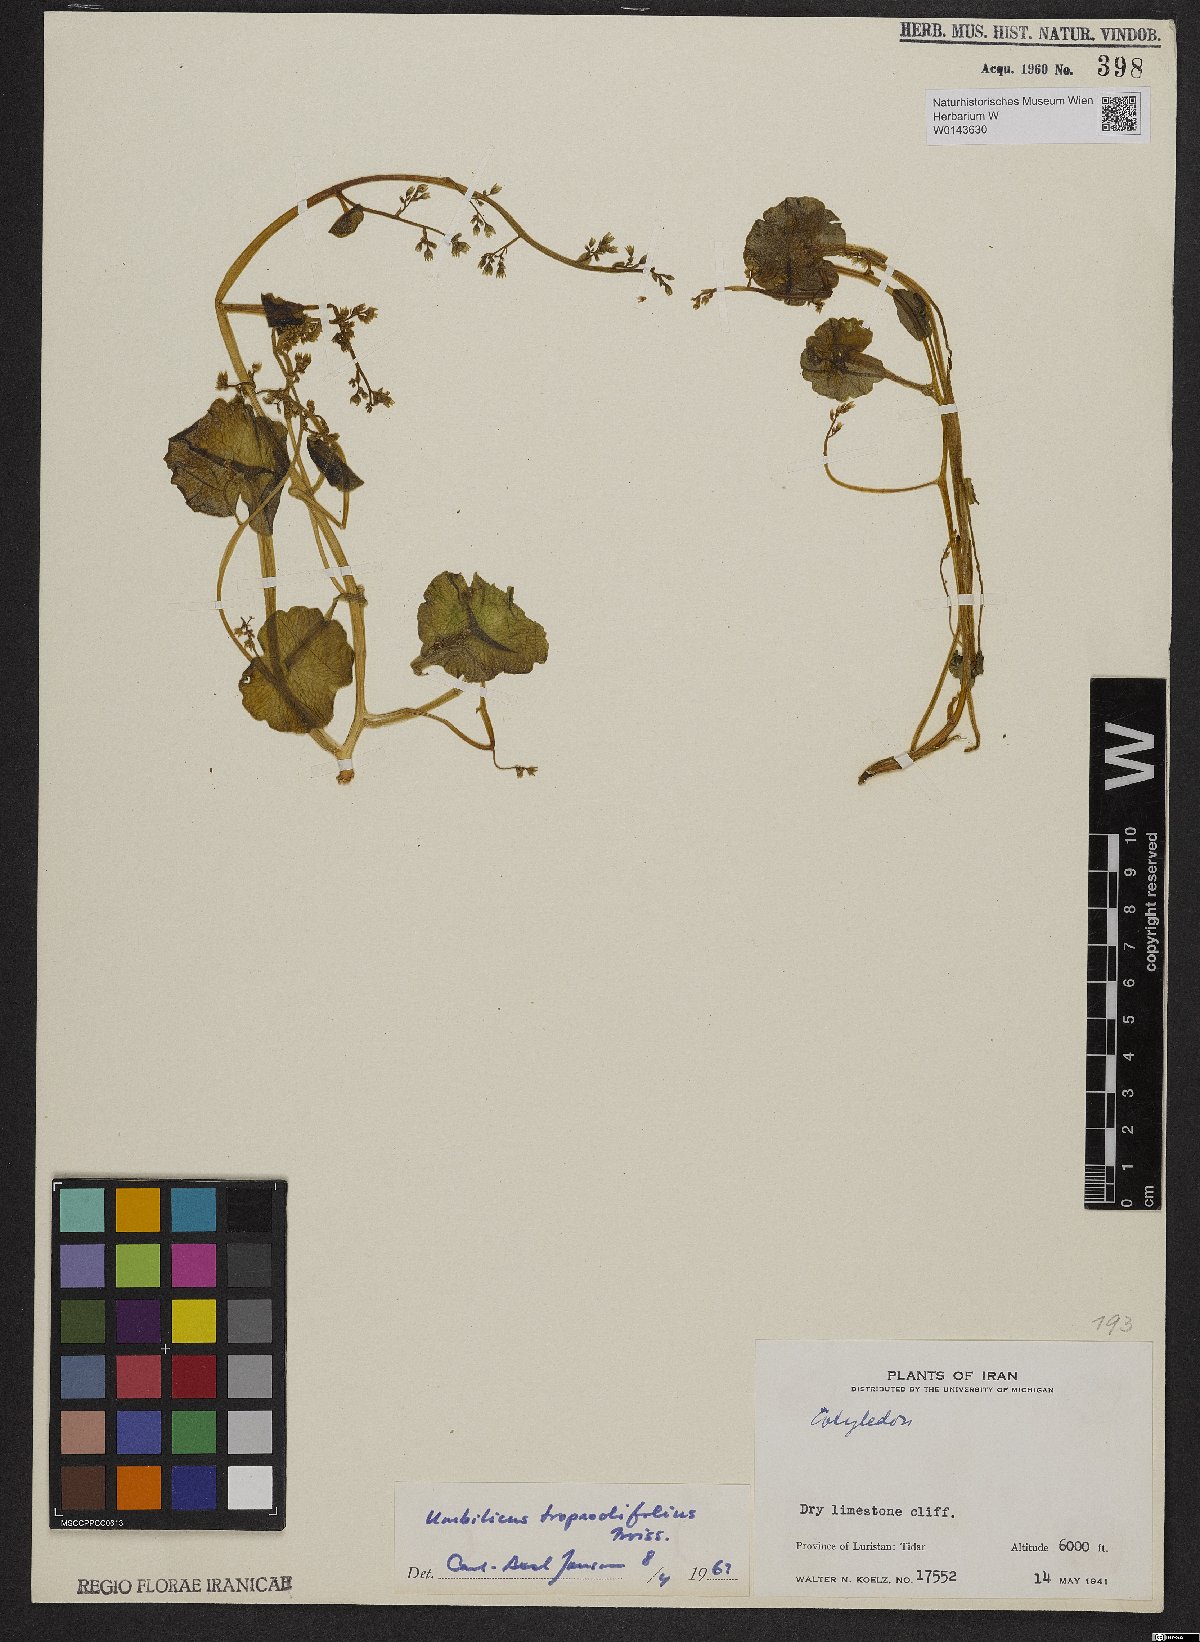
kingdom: Plantae
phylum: Tracheophyta
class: Magnoliopsida
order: Saxifragales
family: Crassulaceae
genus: Umbilicus
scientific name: Umbilicus tropaeolifolius
